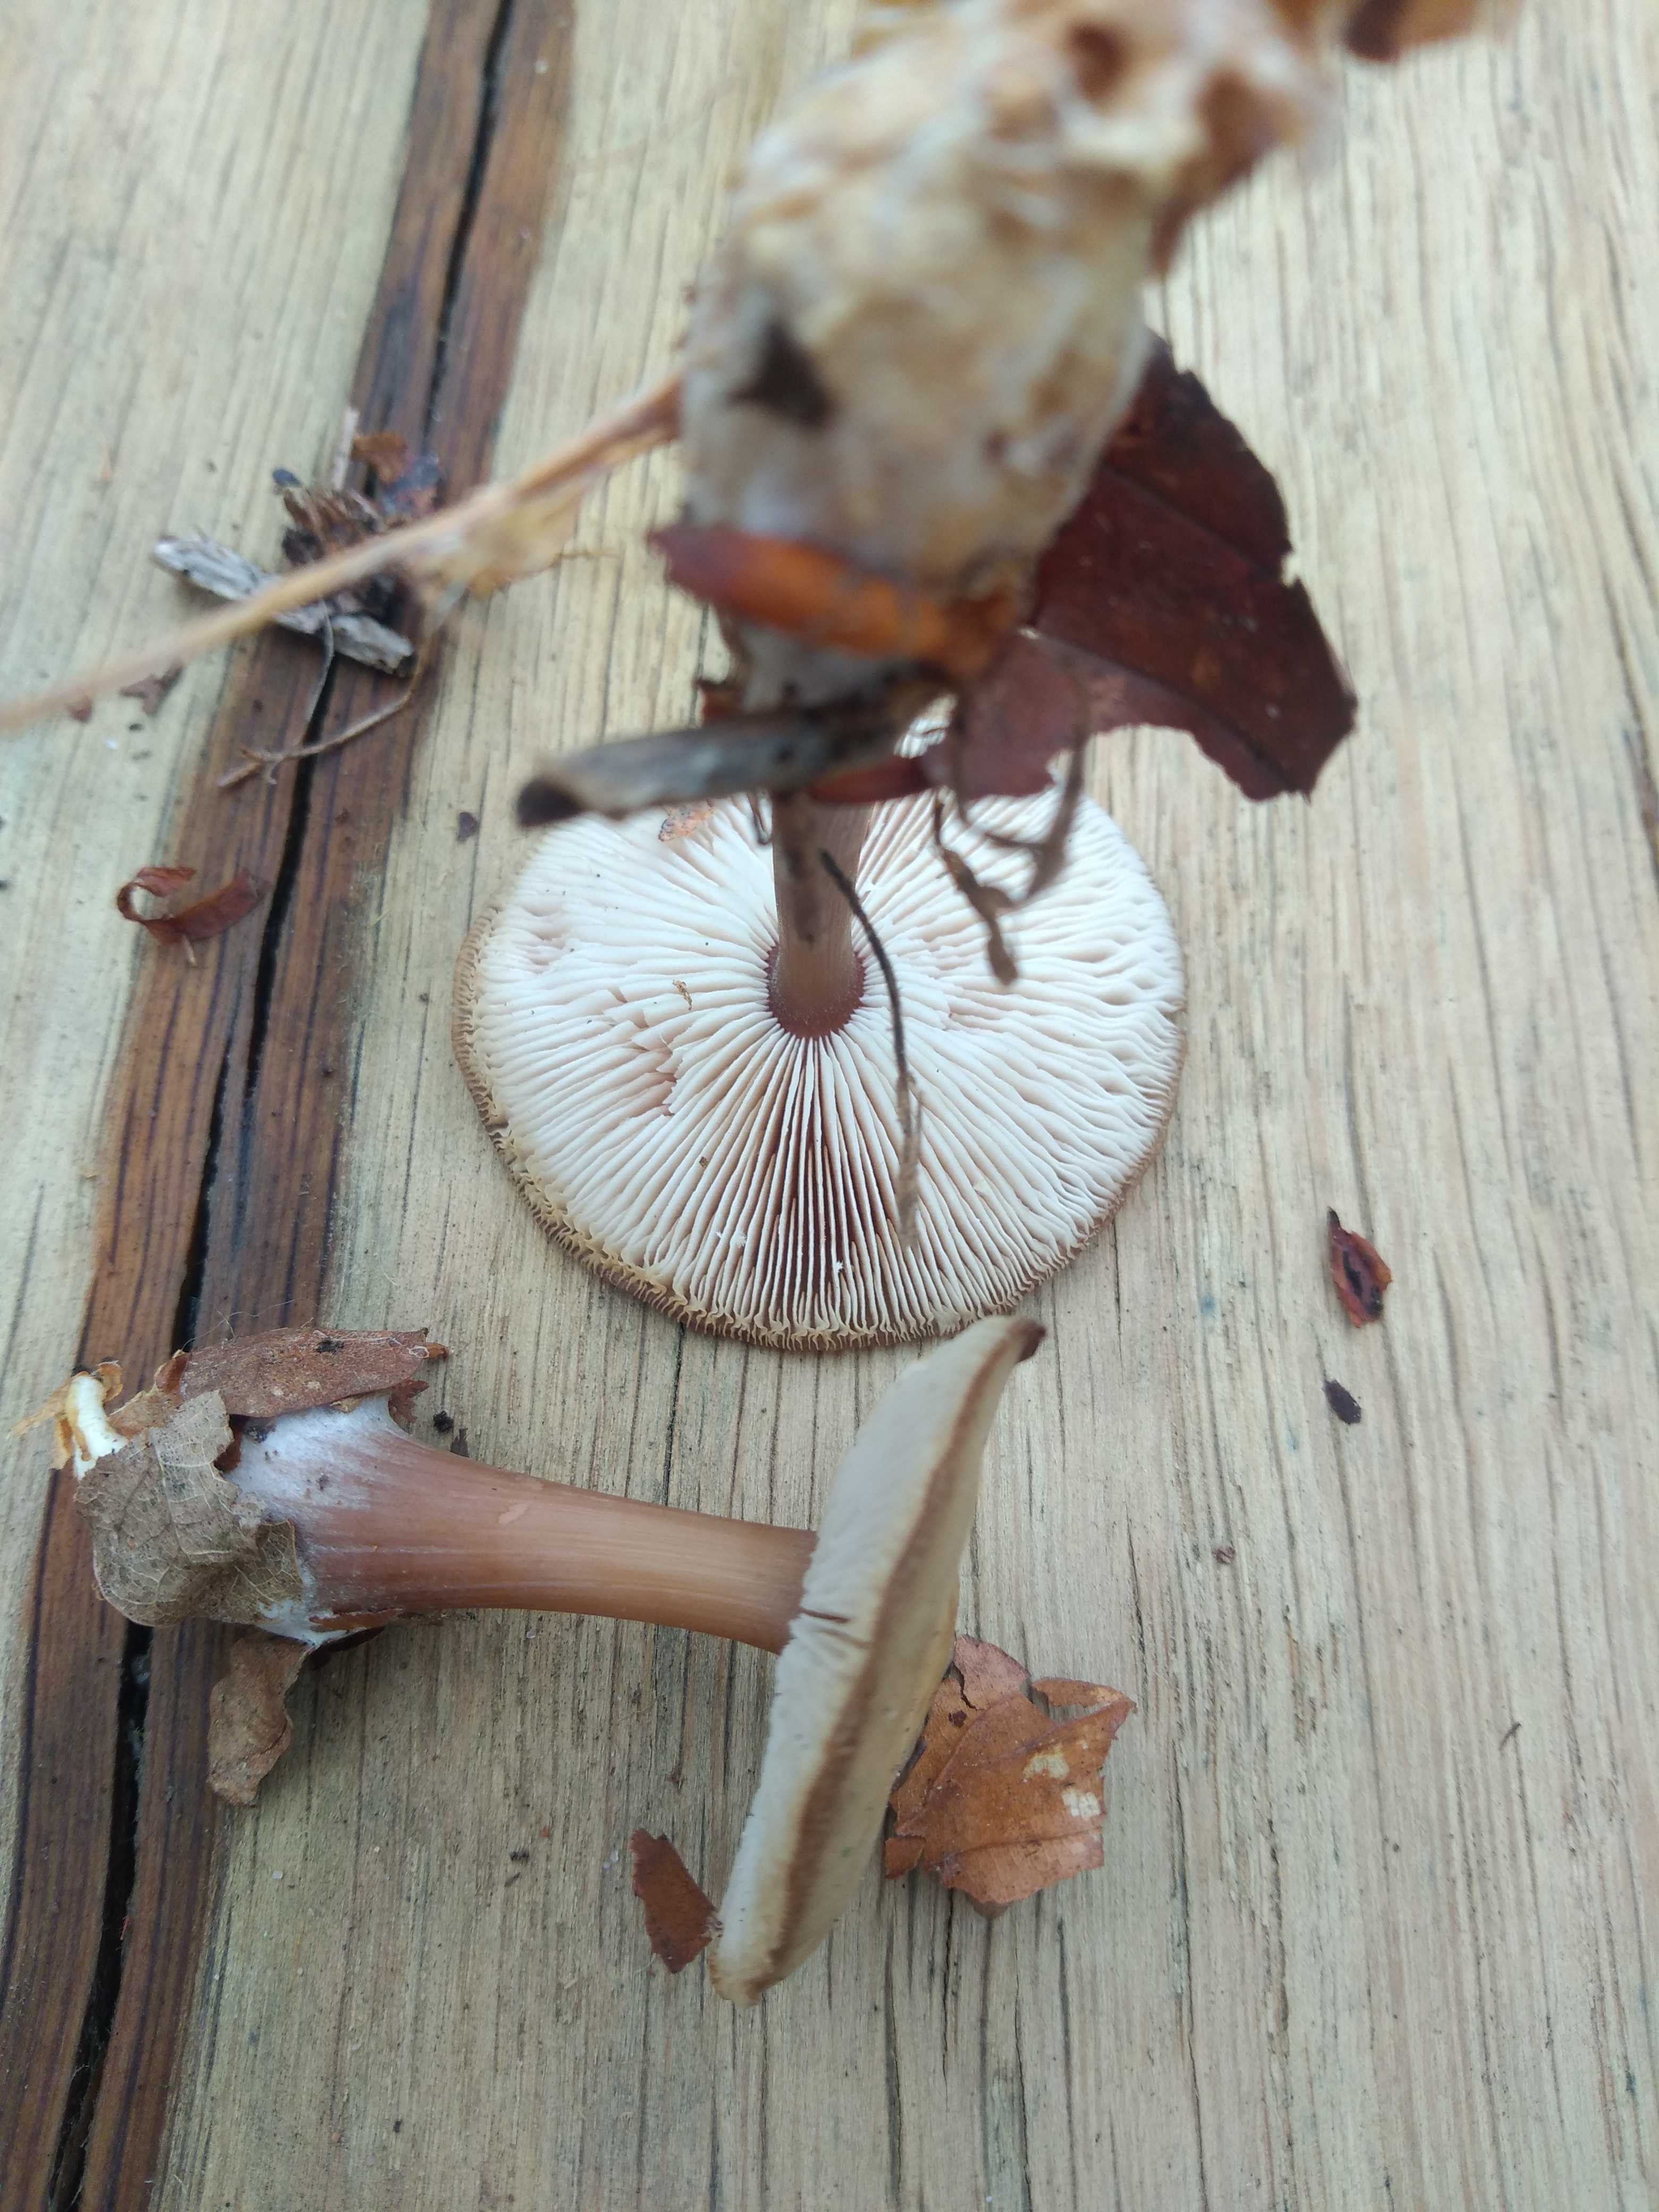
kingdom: Fungi
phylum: Basidiomycota
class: Agaricomycetes
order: Agaricales
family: Omphalotaceae
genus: Rhodocollybia
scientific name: Rhodocollybia asema
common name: horngrå fladhat
